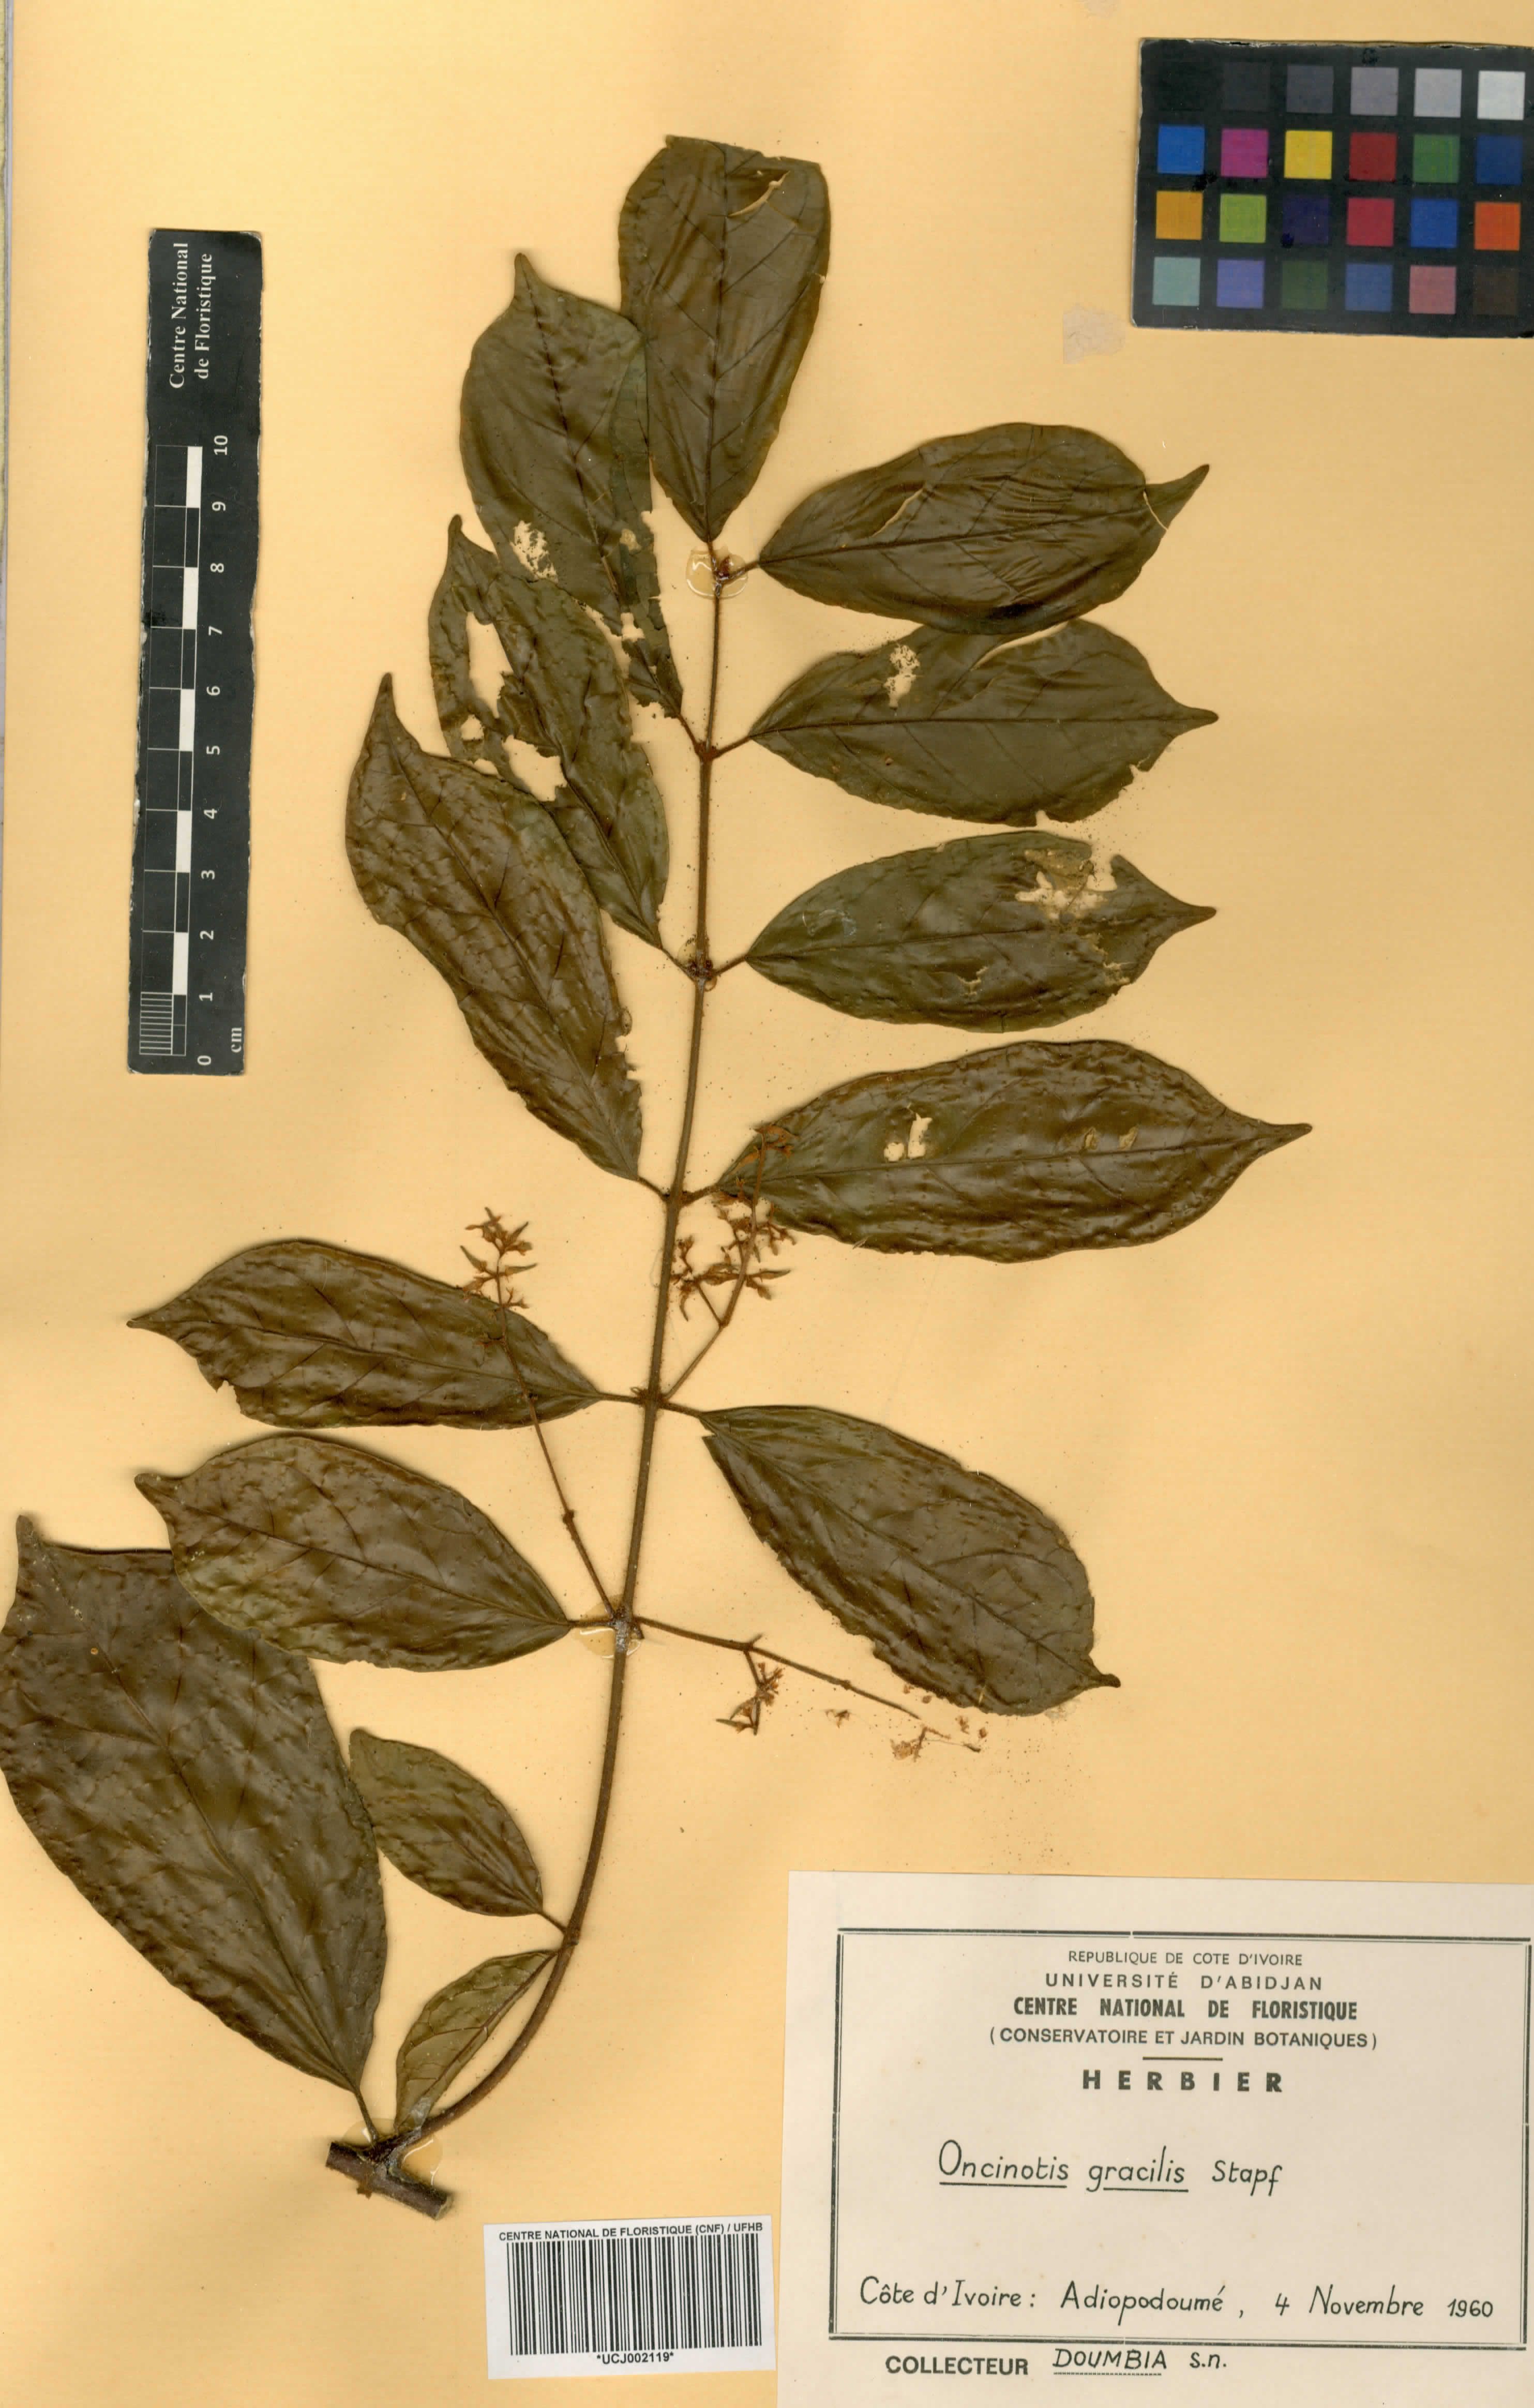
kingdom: Plantae
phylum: Tracheophyta
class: Magnoliopsida
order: Gentianales
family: Apocynaceae
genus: Oncinotis
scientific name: Oncinotis gracilis
